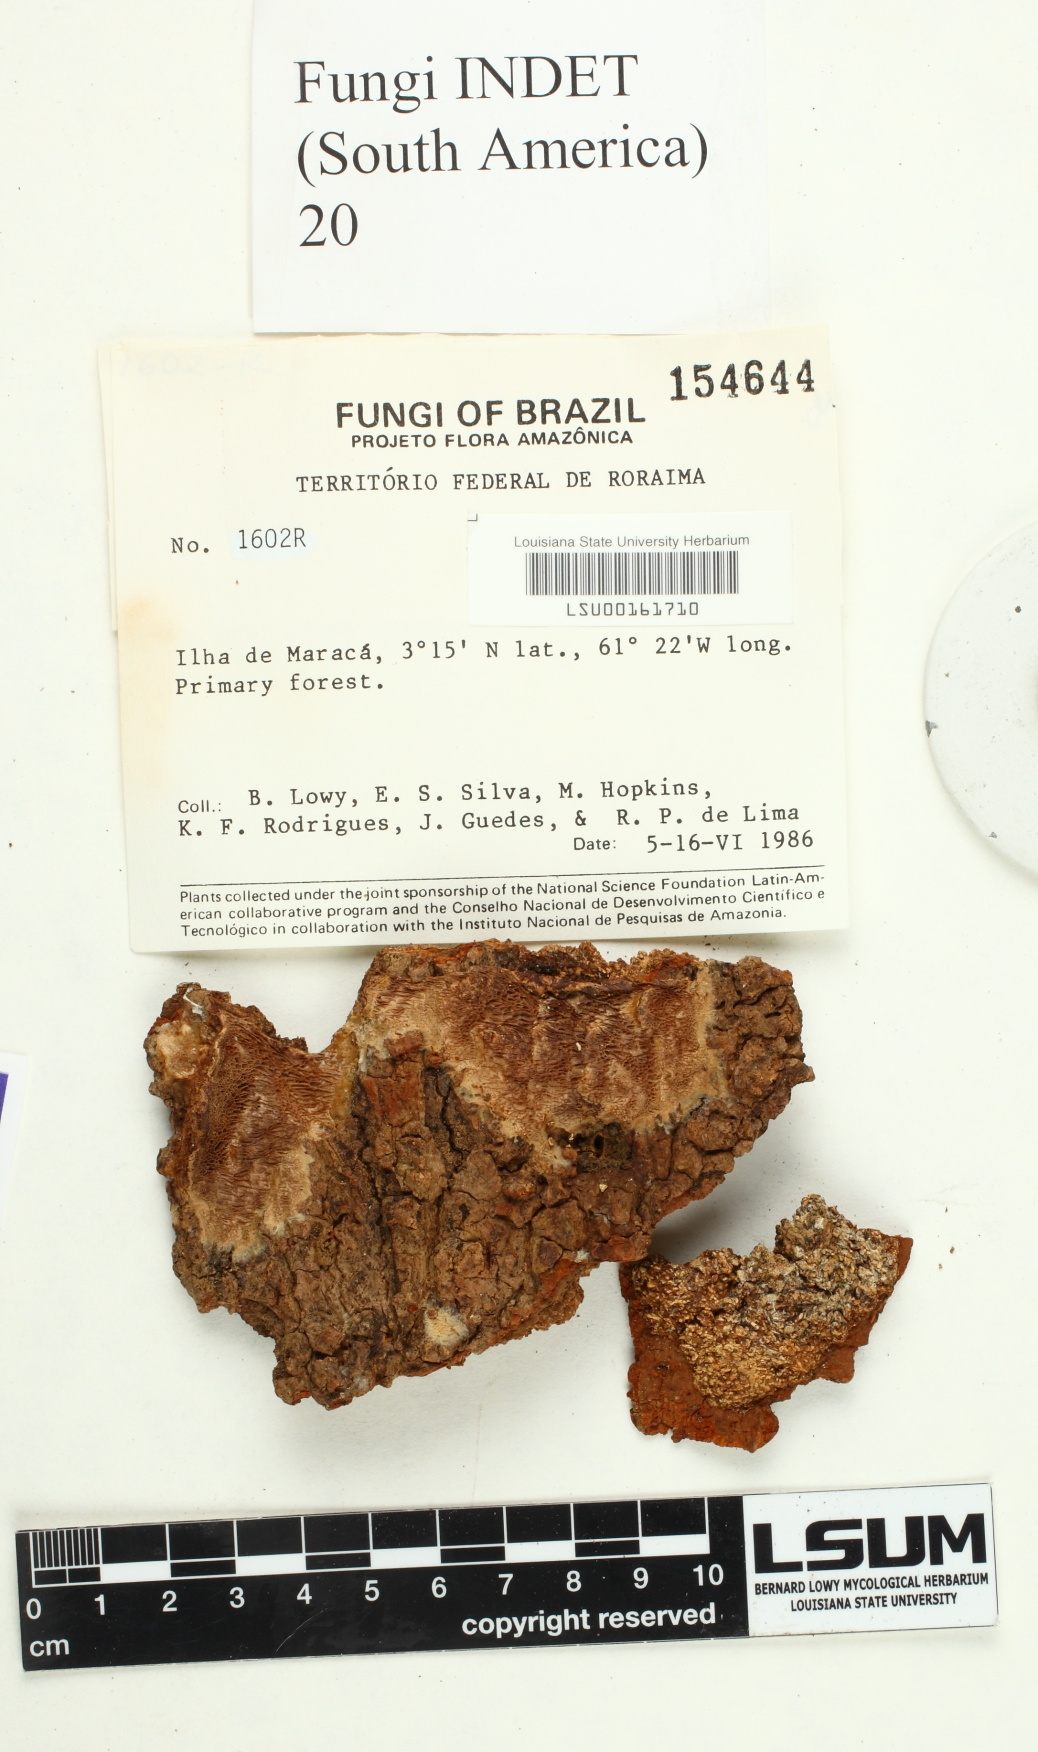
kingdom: Fungi
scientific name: Fungi
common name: Fungi
